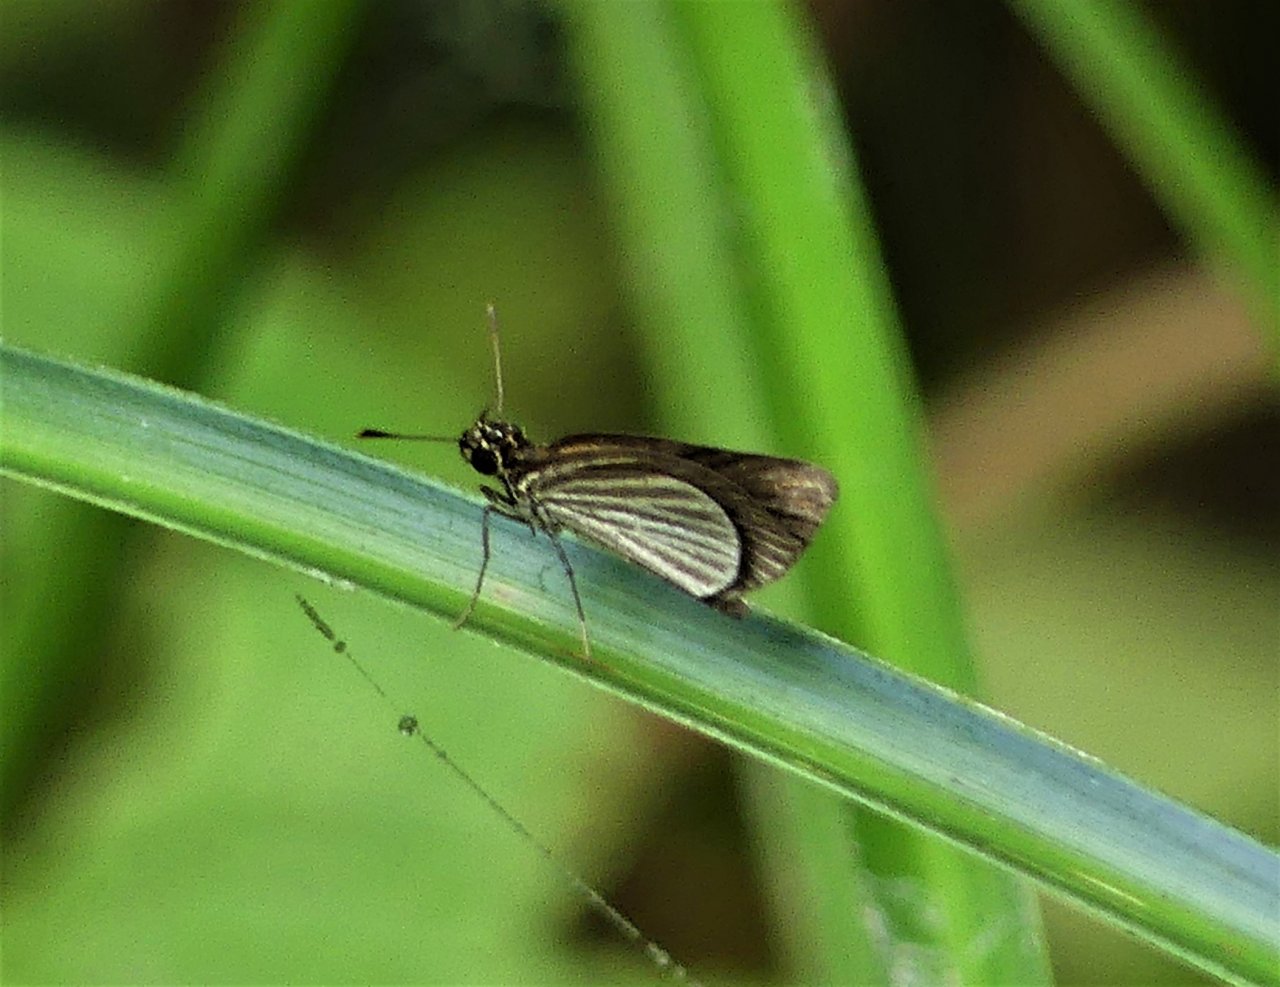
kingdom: Animalia
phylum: Arthropoda
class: Insecta
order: Lepidoptera
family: Hesperiidae
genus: Callimormus
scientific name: Callimormus radiola
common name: Radiant Skipper
